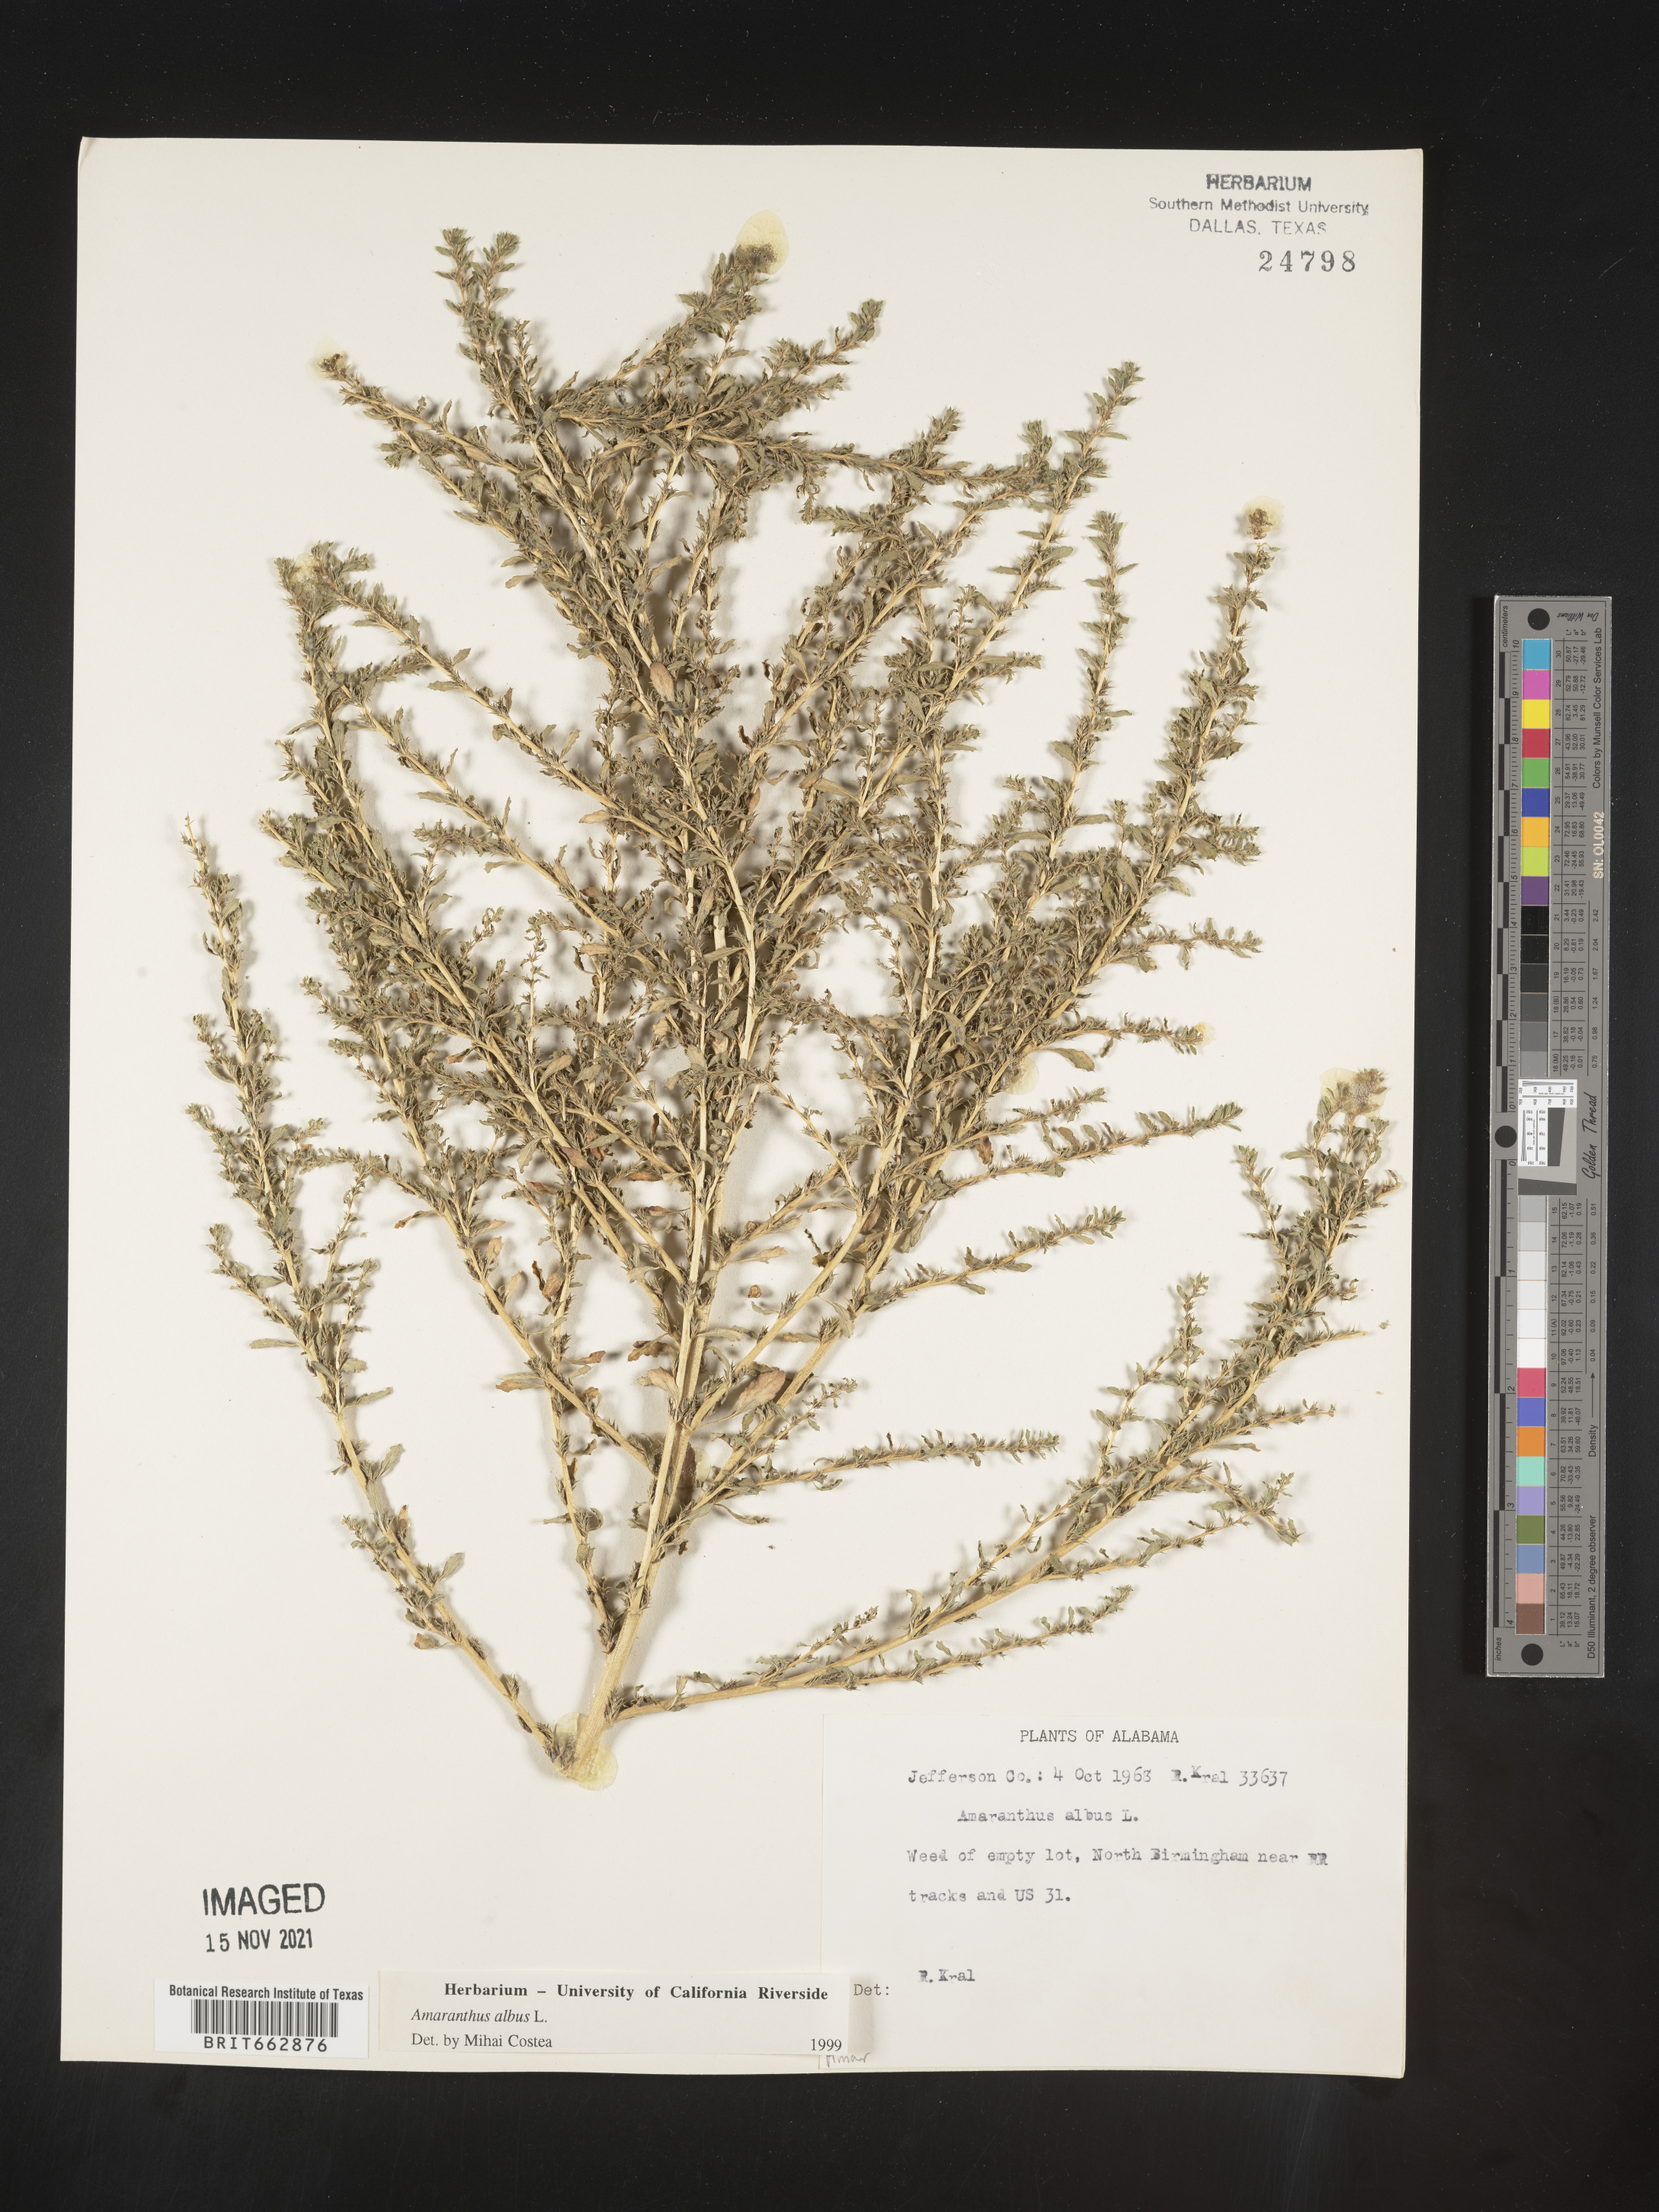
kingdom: Plantae
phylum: Tracheophyta
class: Magnoliopsida
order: Caryophyllales
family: Amaranthaceae
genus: Amaranthus
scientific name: Amaranthus albus
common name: White pigweed
